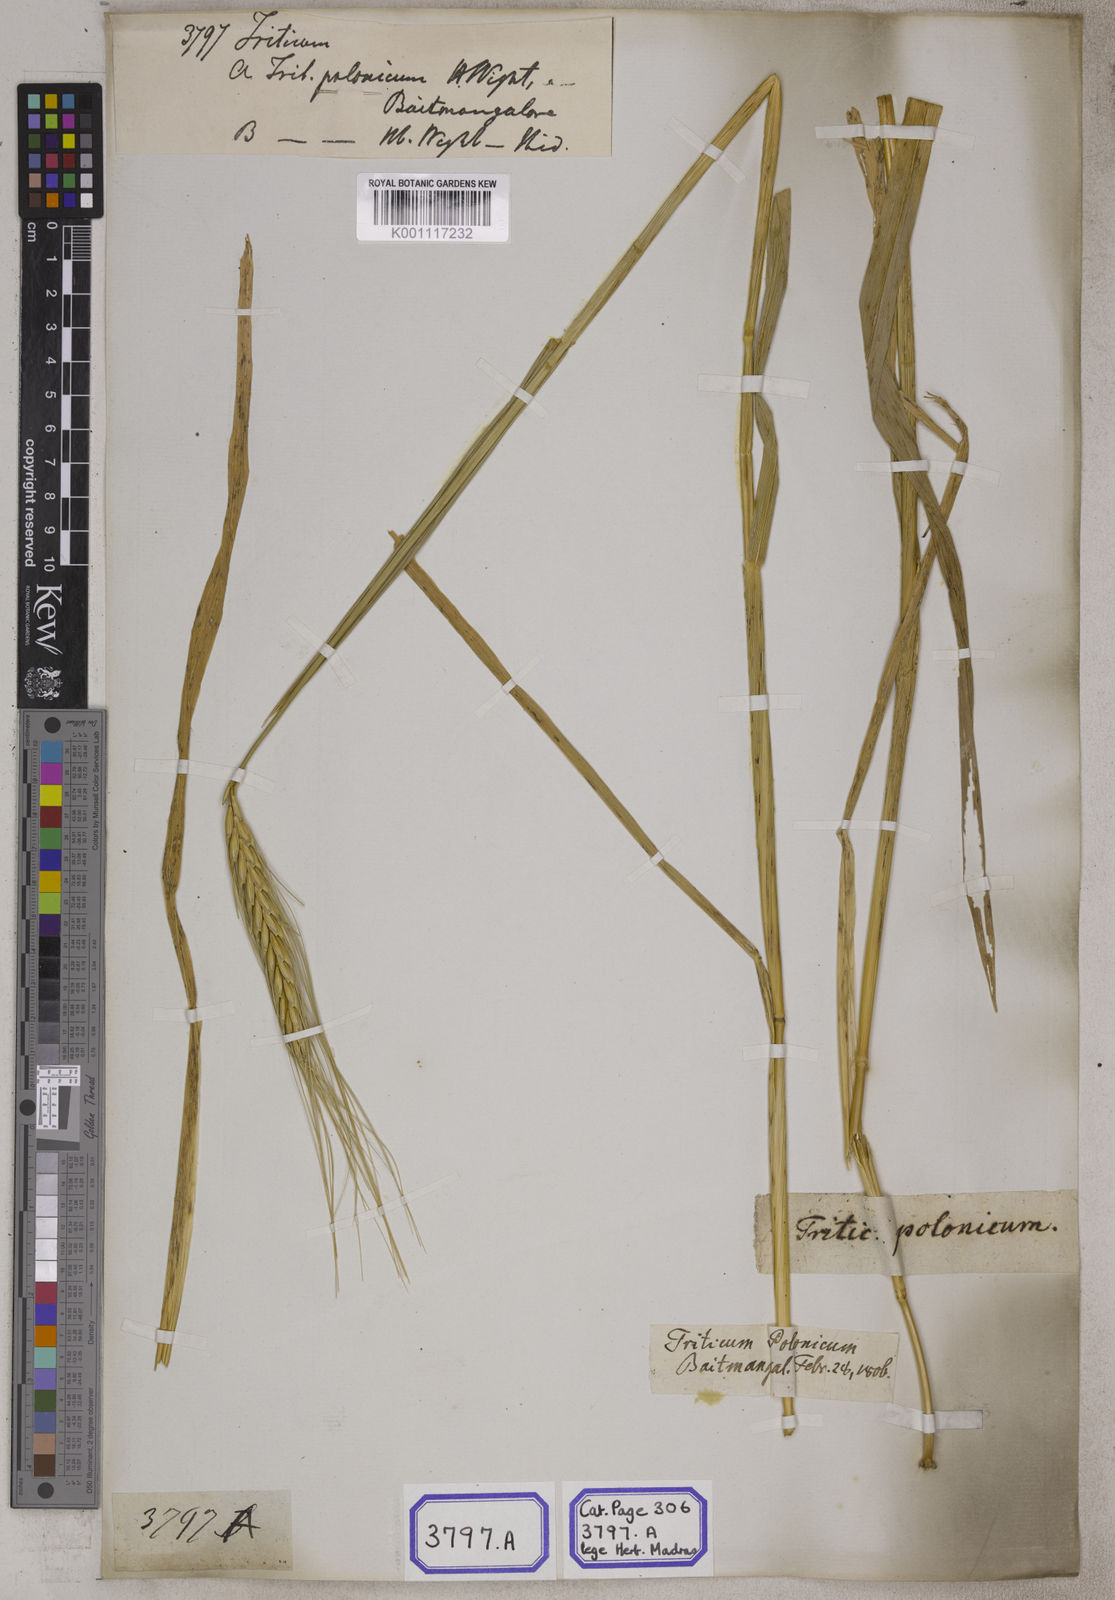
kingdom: Plantae
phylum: Tracheophyta
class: Liliopsida
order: Poales
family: Poaceae
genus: Triticum
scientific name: Triticum
